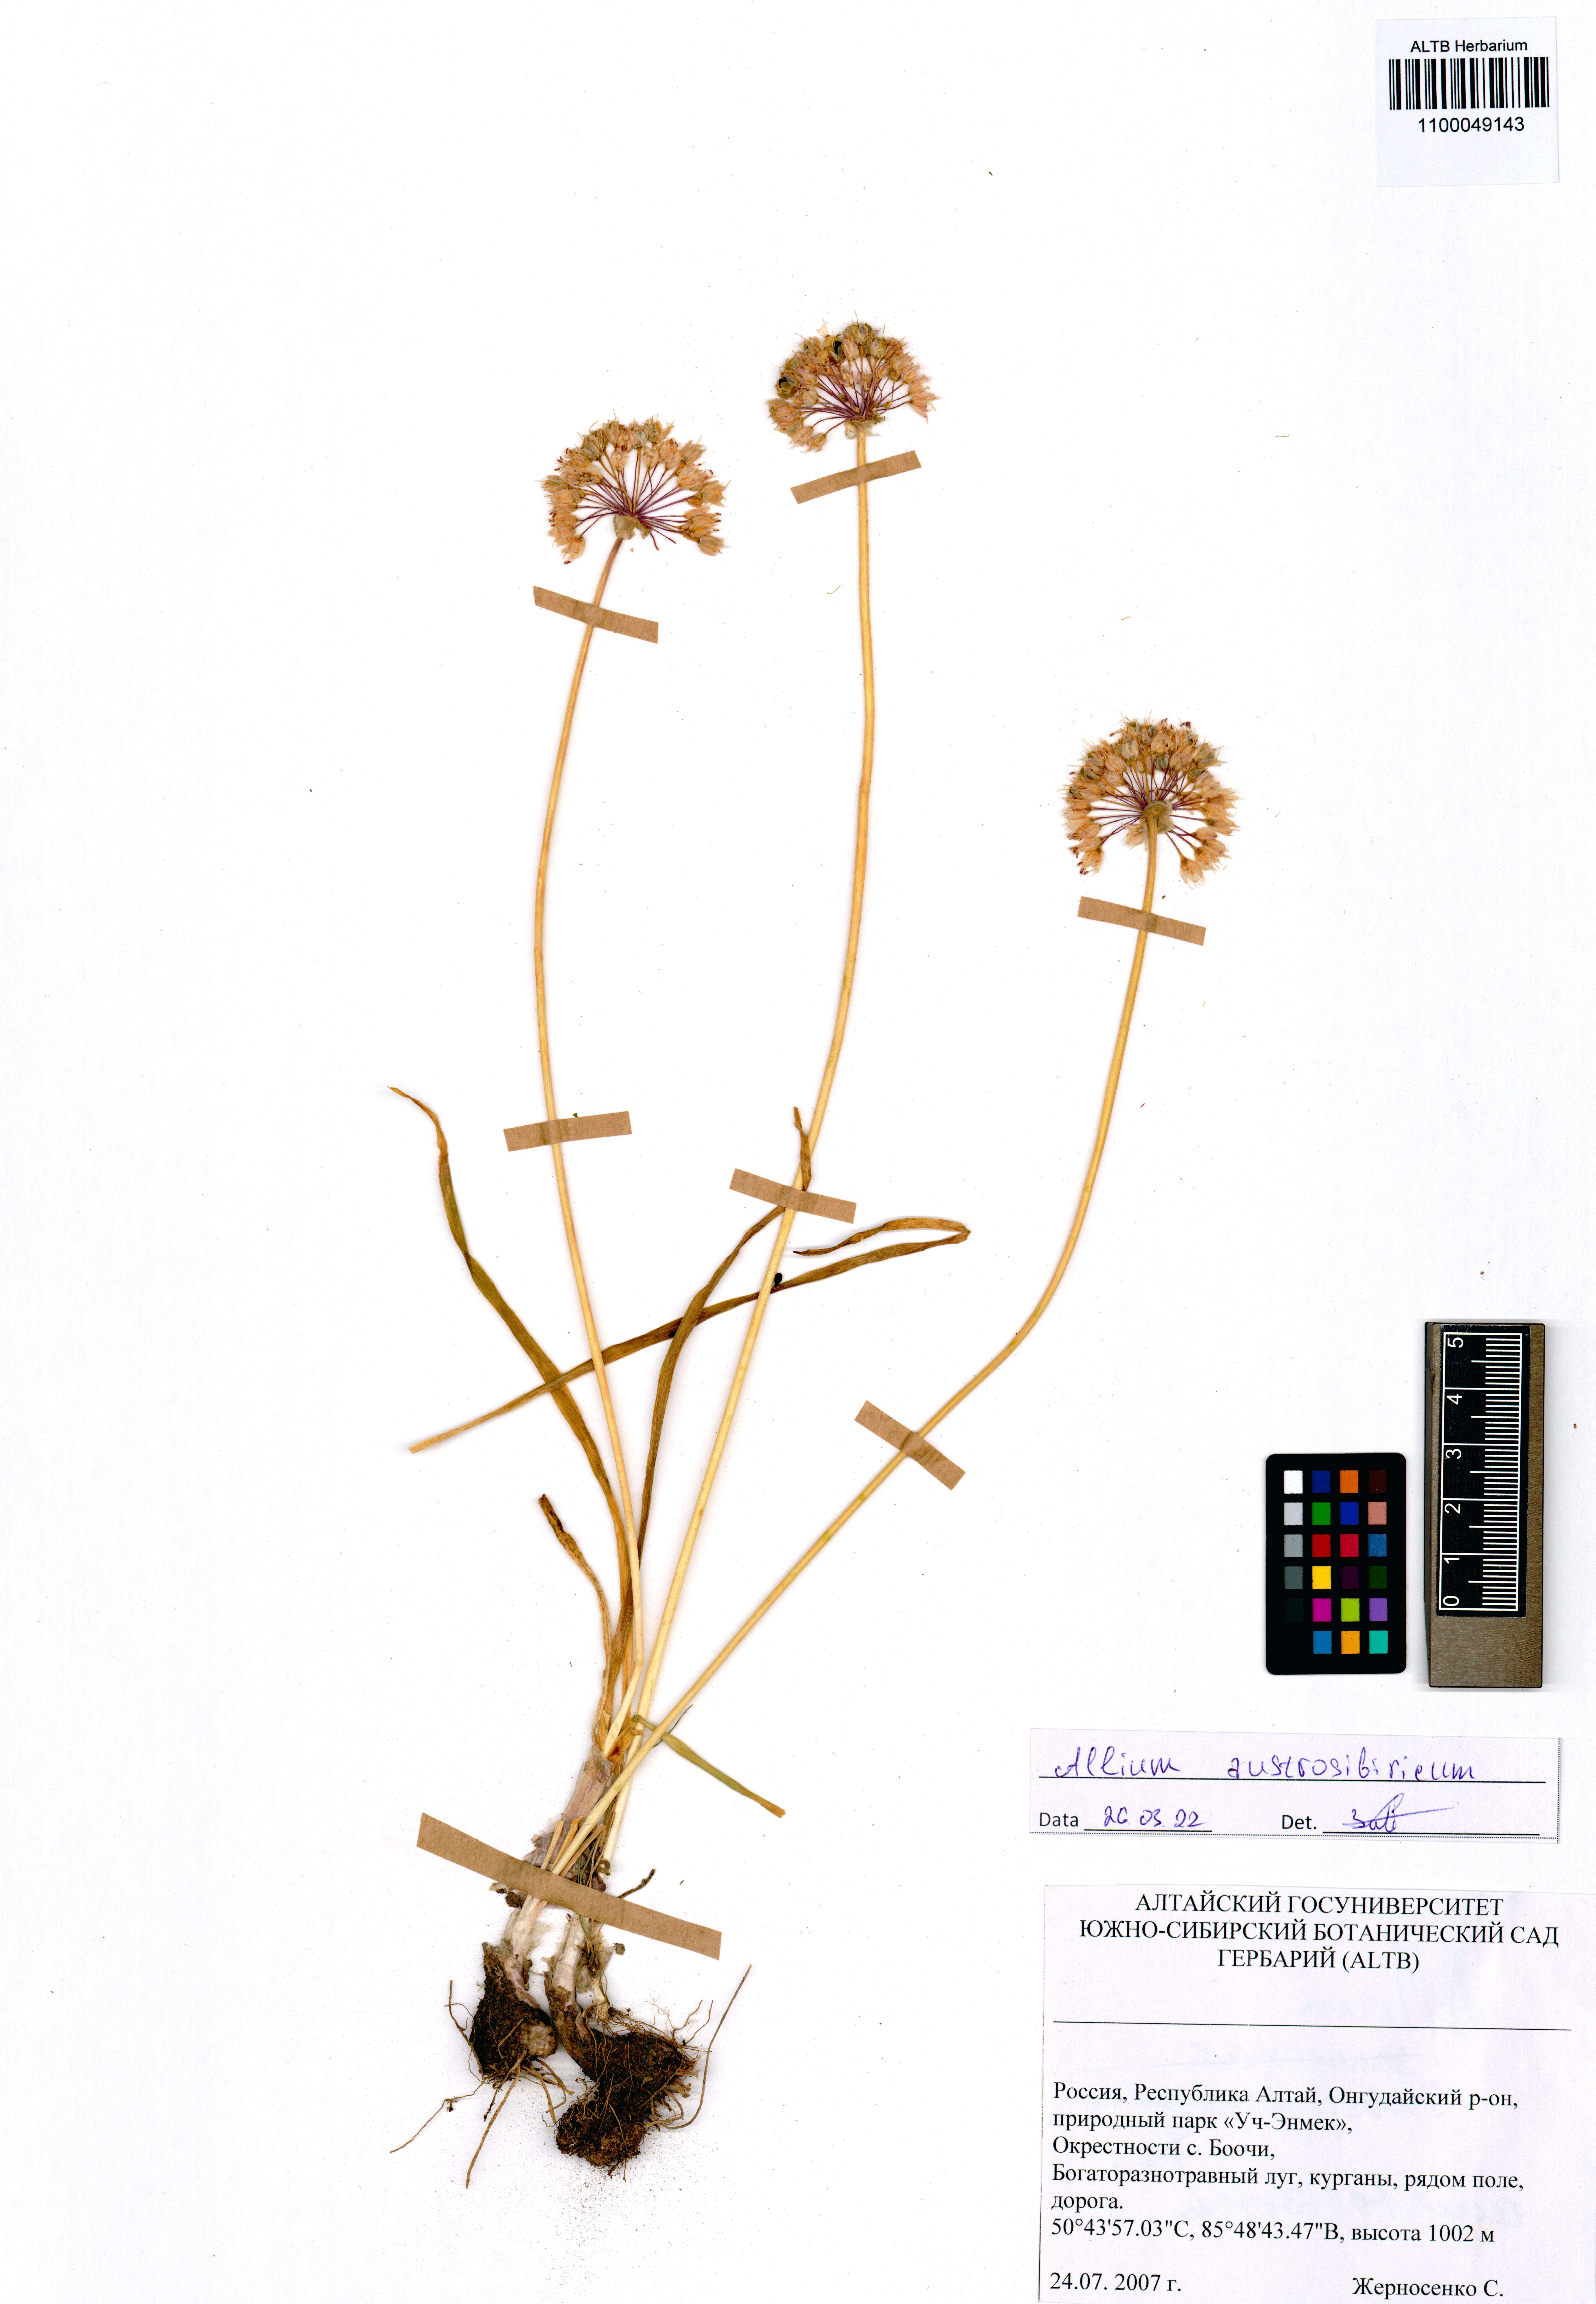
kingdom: Plantae
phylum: Tracheophyta
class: Liliopsida
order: Asparagales
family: Amaryllidaceae
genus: Allium
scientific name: Allium austrosibiricum
